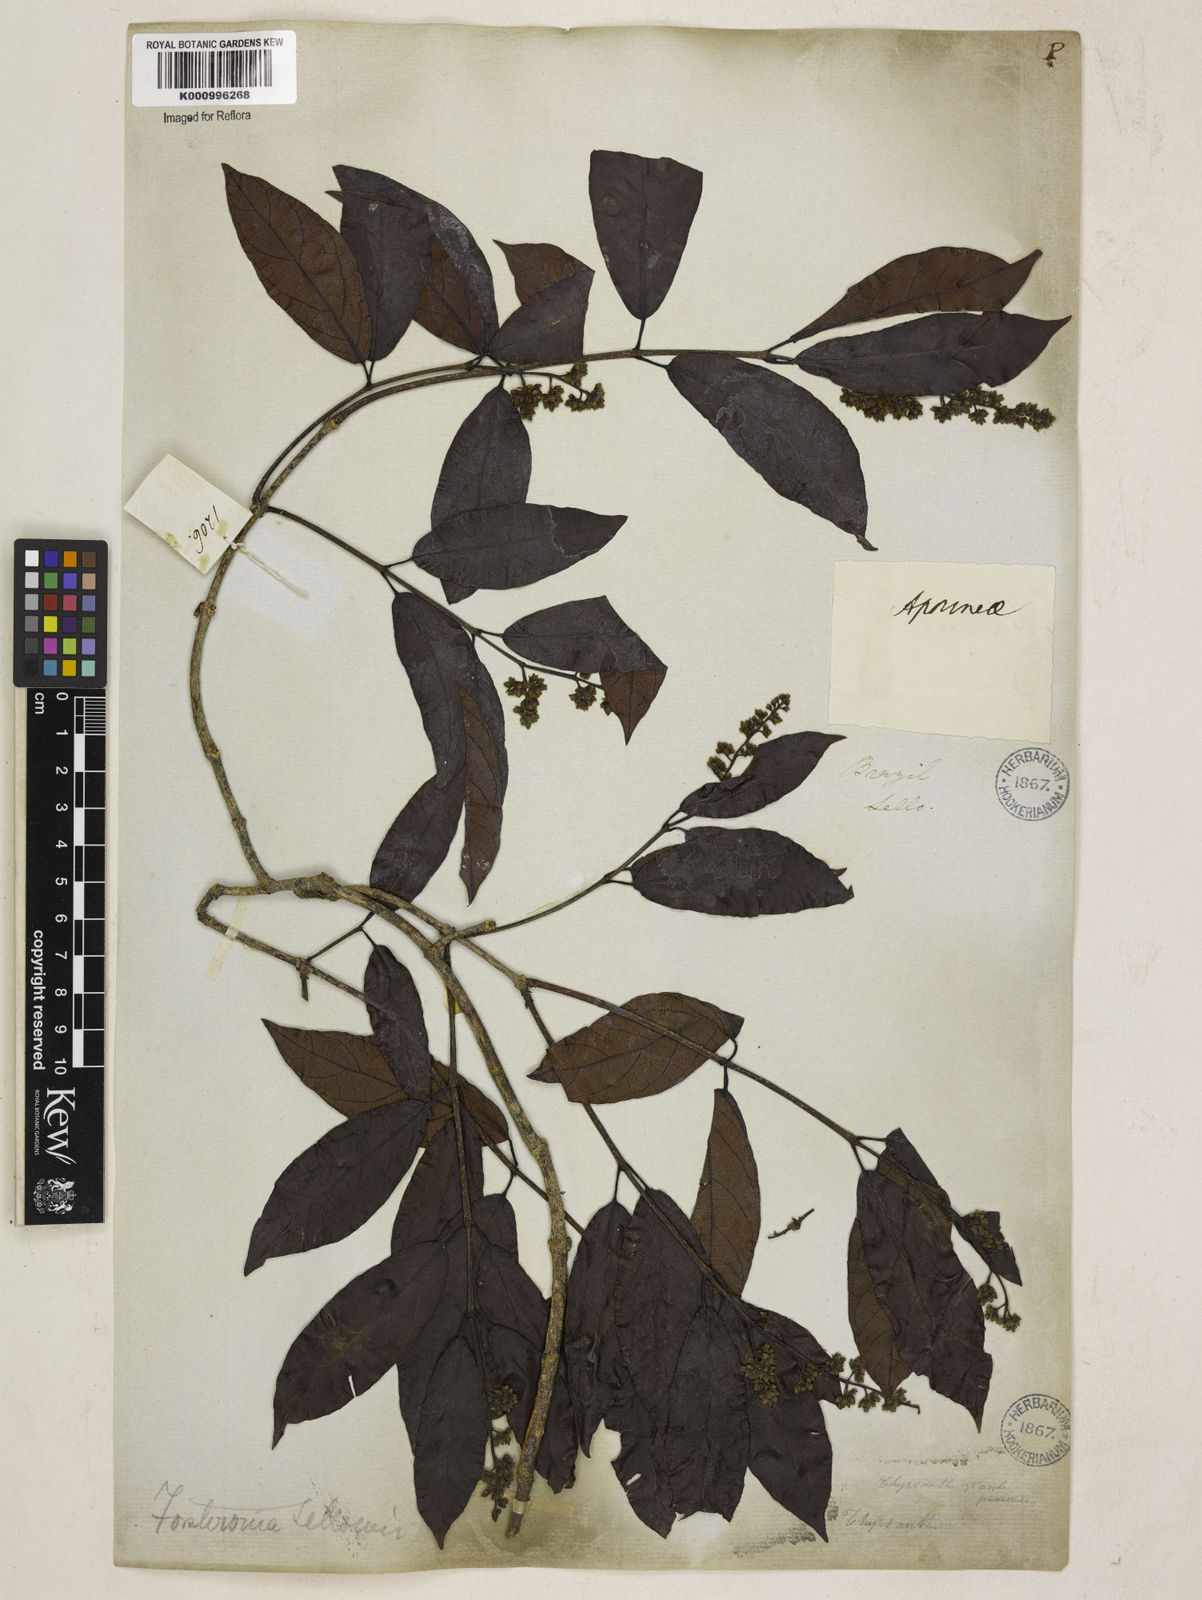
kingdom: Plantae
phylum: Tracheophyta
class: Magnoliopsida
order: Gentianales
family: Apocynaceae
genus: Forsteronia
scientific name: Forsteronia
